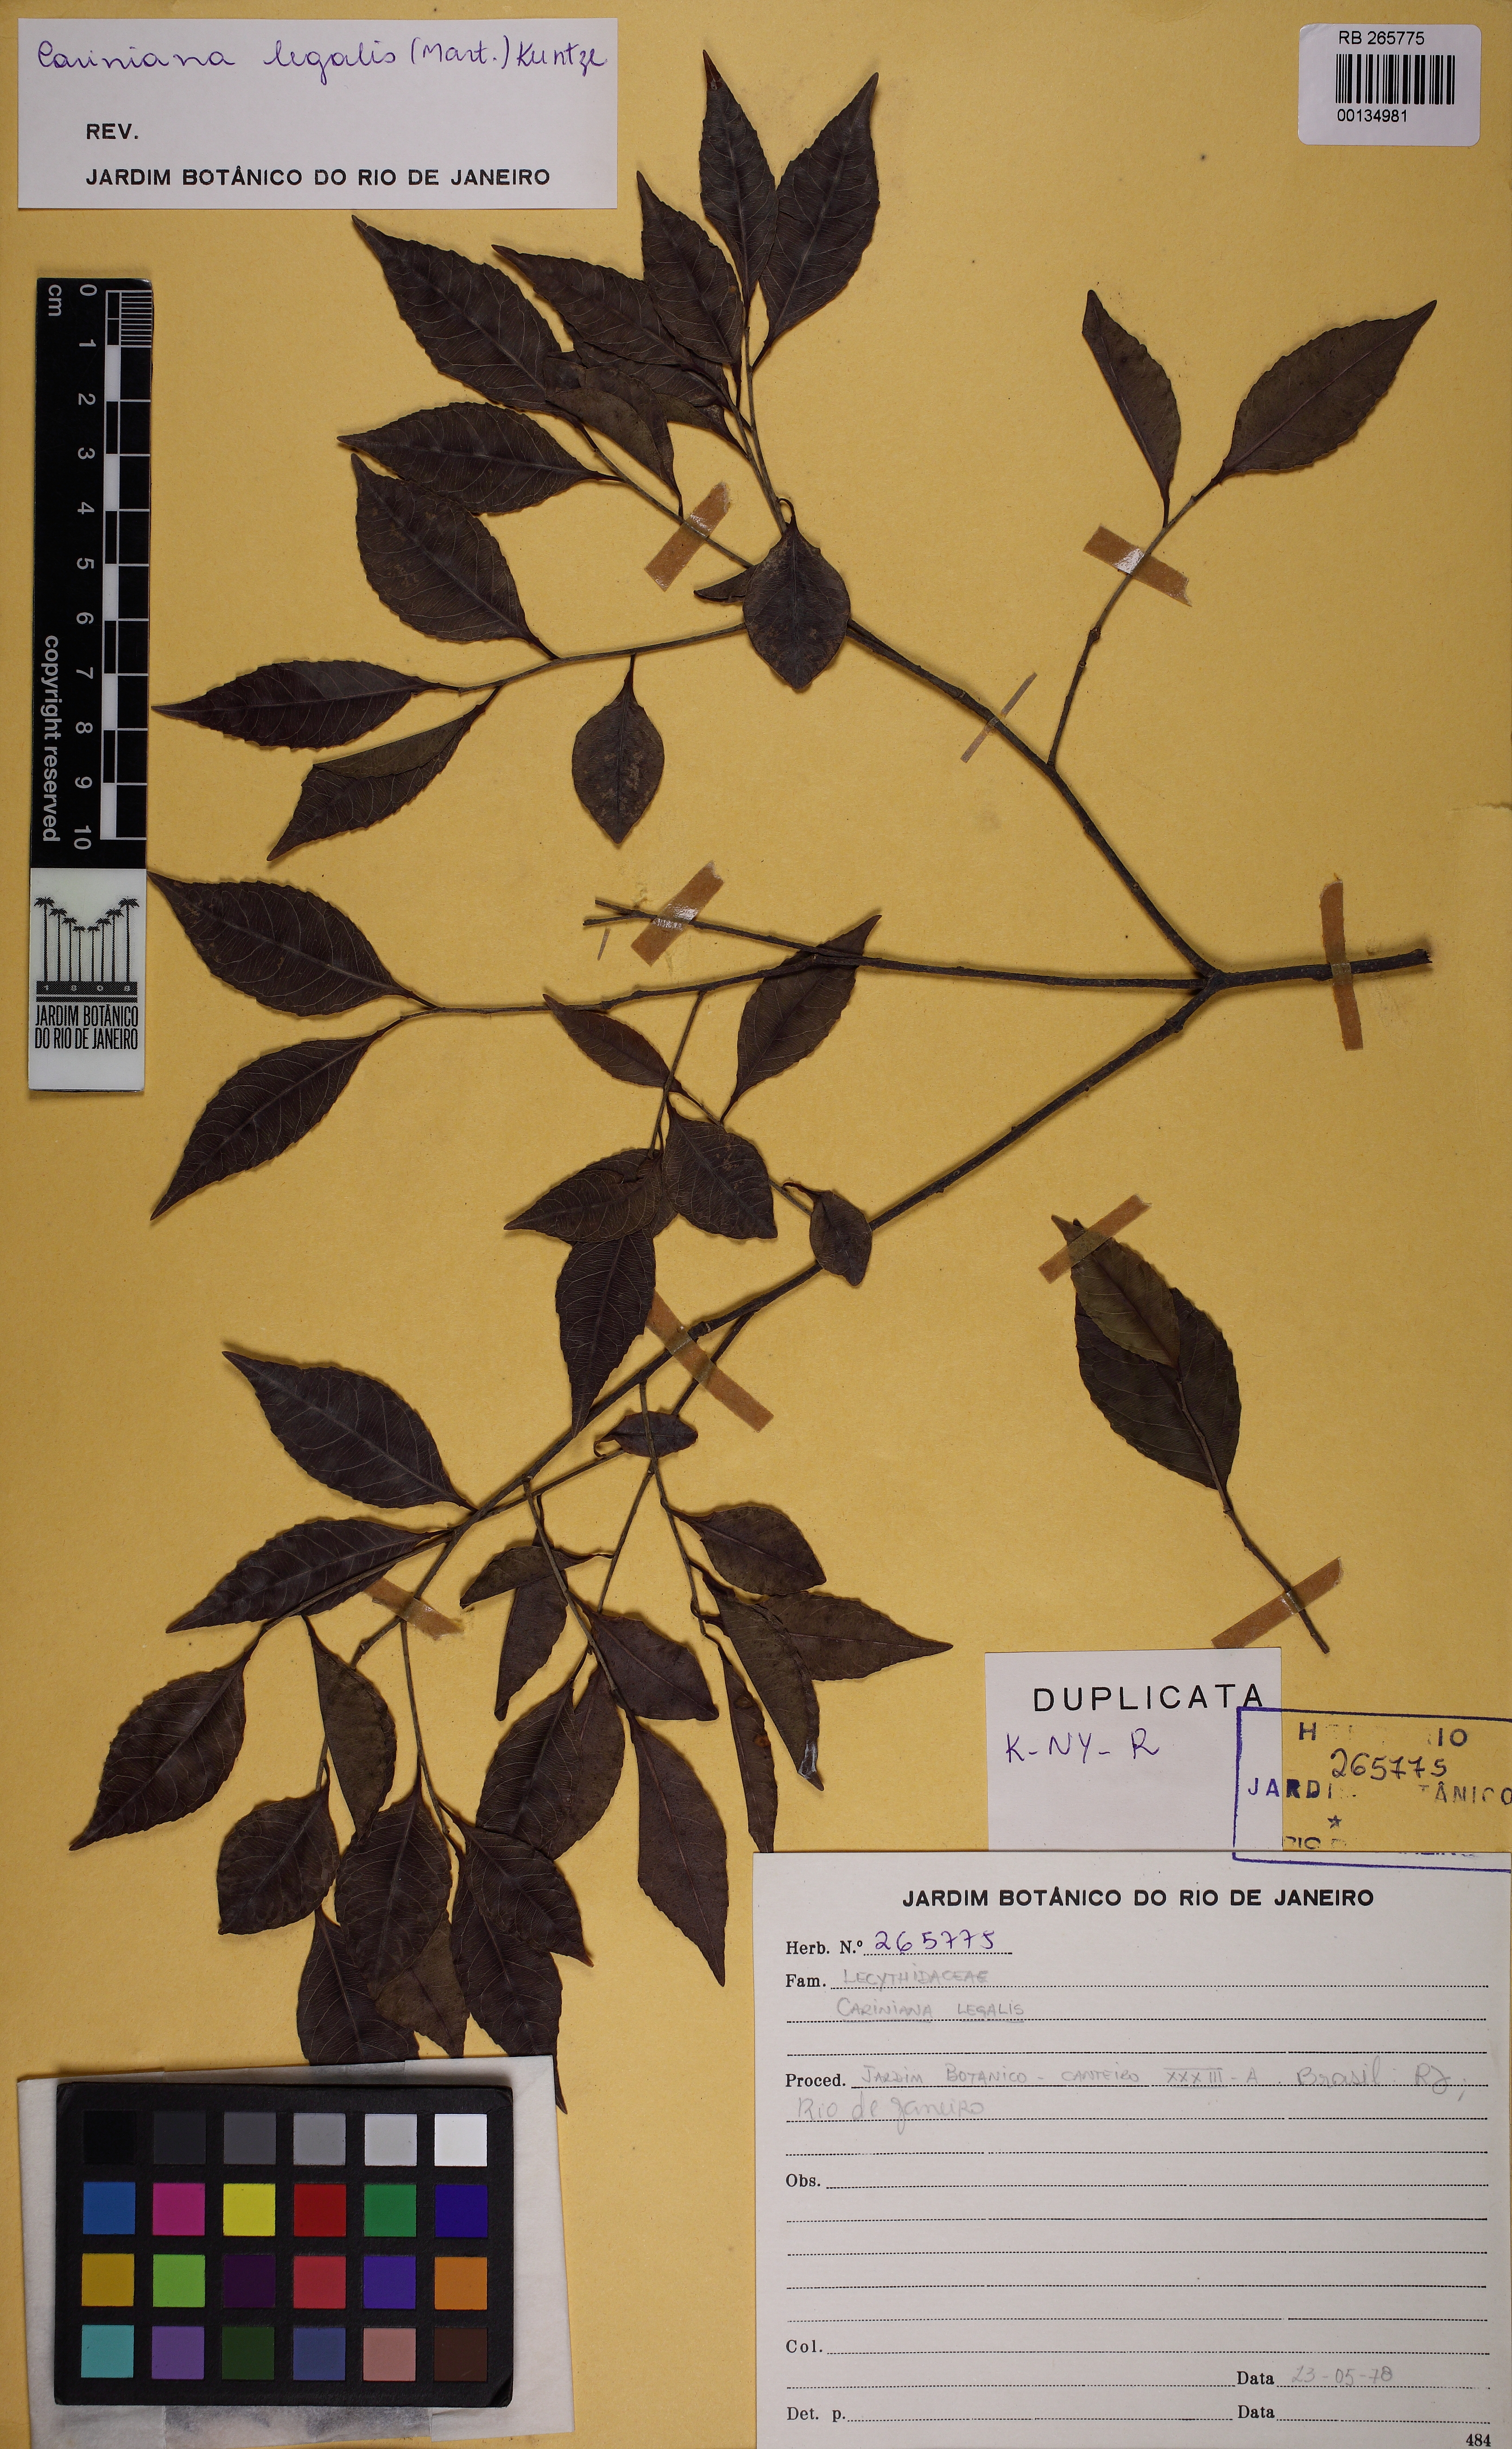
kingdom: Plantae
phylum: Tracheophyta
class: Magnoliopsida
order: Ericales
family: Lecythidaceae
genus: Cariniana
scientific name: Cariniana legalis
